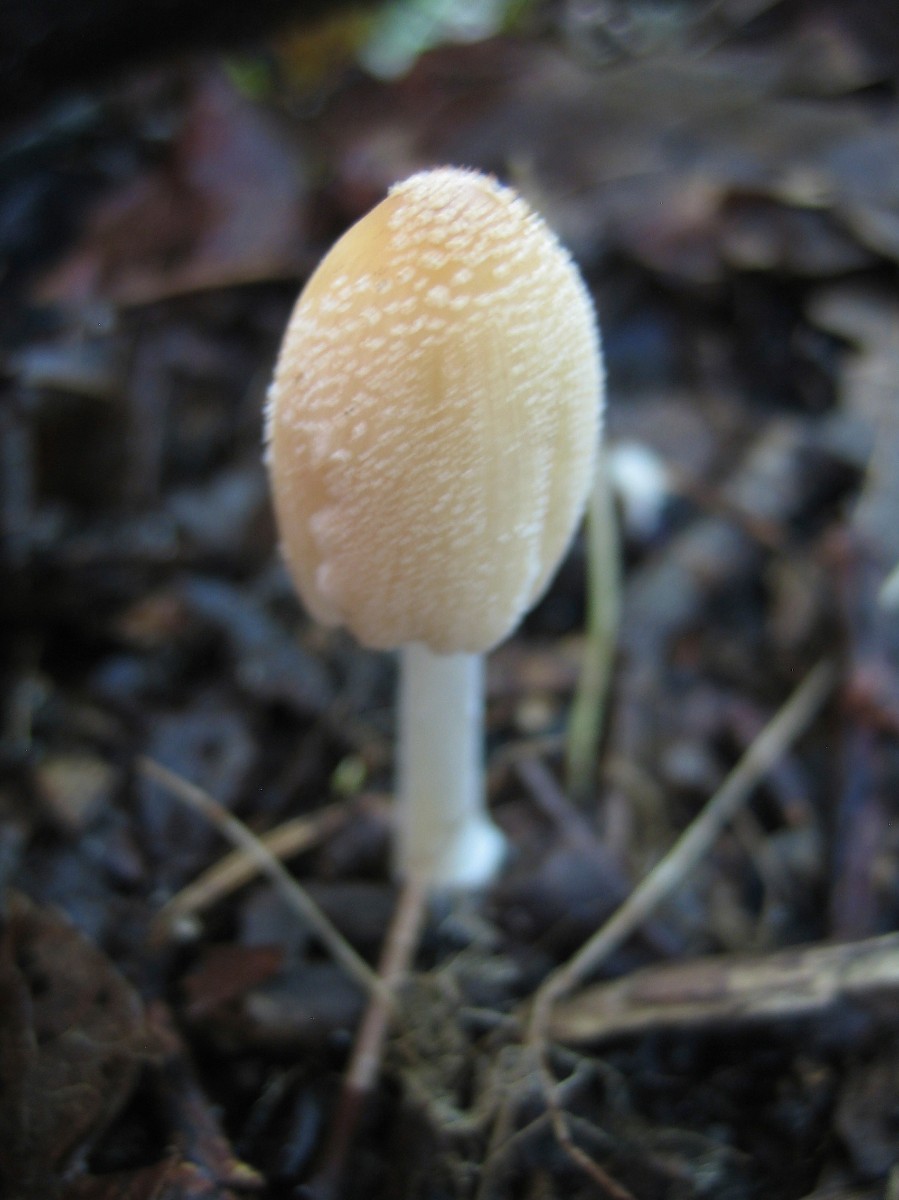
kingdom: Fungi
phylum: Basidiomycota
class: Agaricomycetes
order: Agaricales
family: Psathyrellaceae
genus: Coprinellus
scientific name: Coprinellus
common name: blækhat
